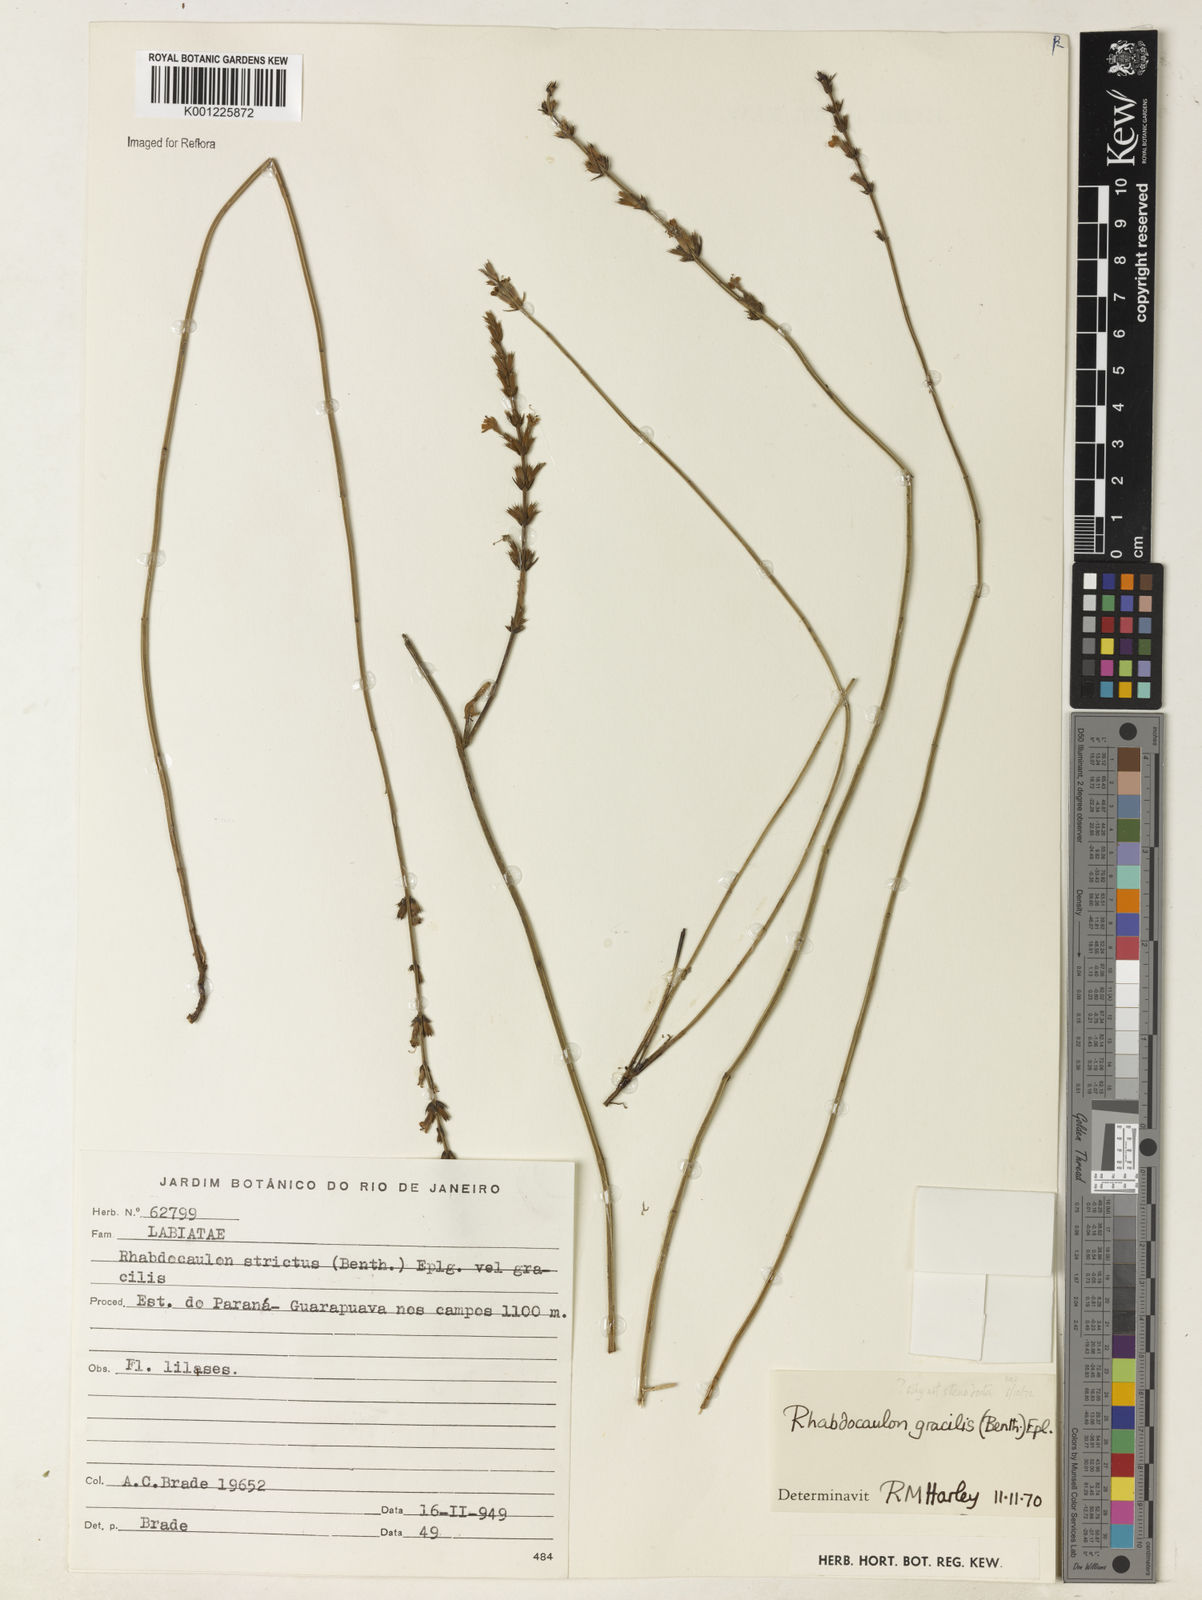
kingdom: Plantae
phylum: Tracheophyta
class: Magnoliopsida
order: Lamiales
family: Lamiaceae
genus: Rhabdocaulon
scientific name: Rhabdocaulon stenodontum
